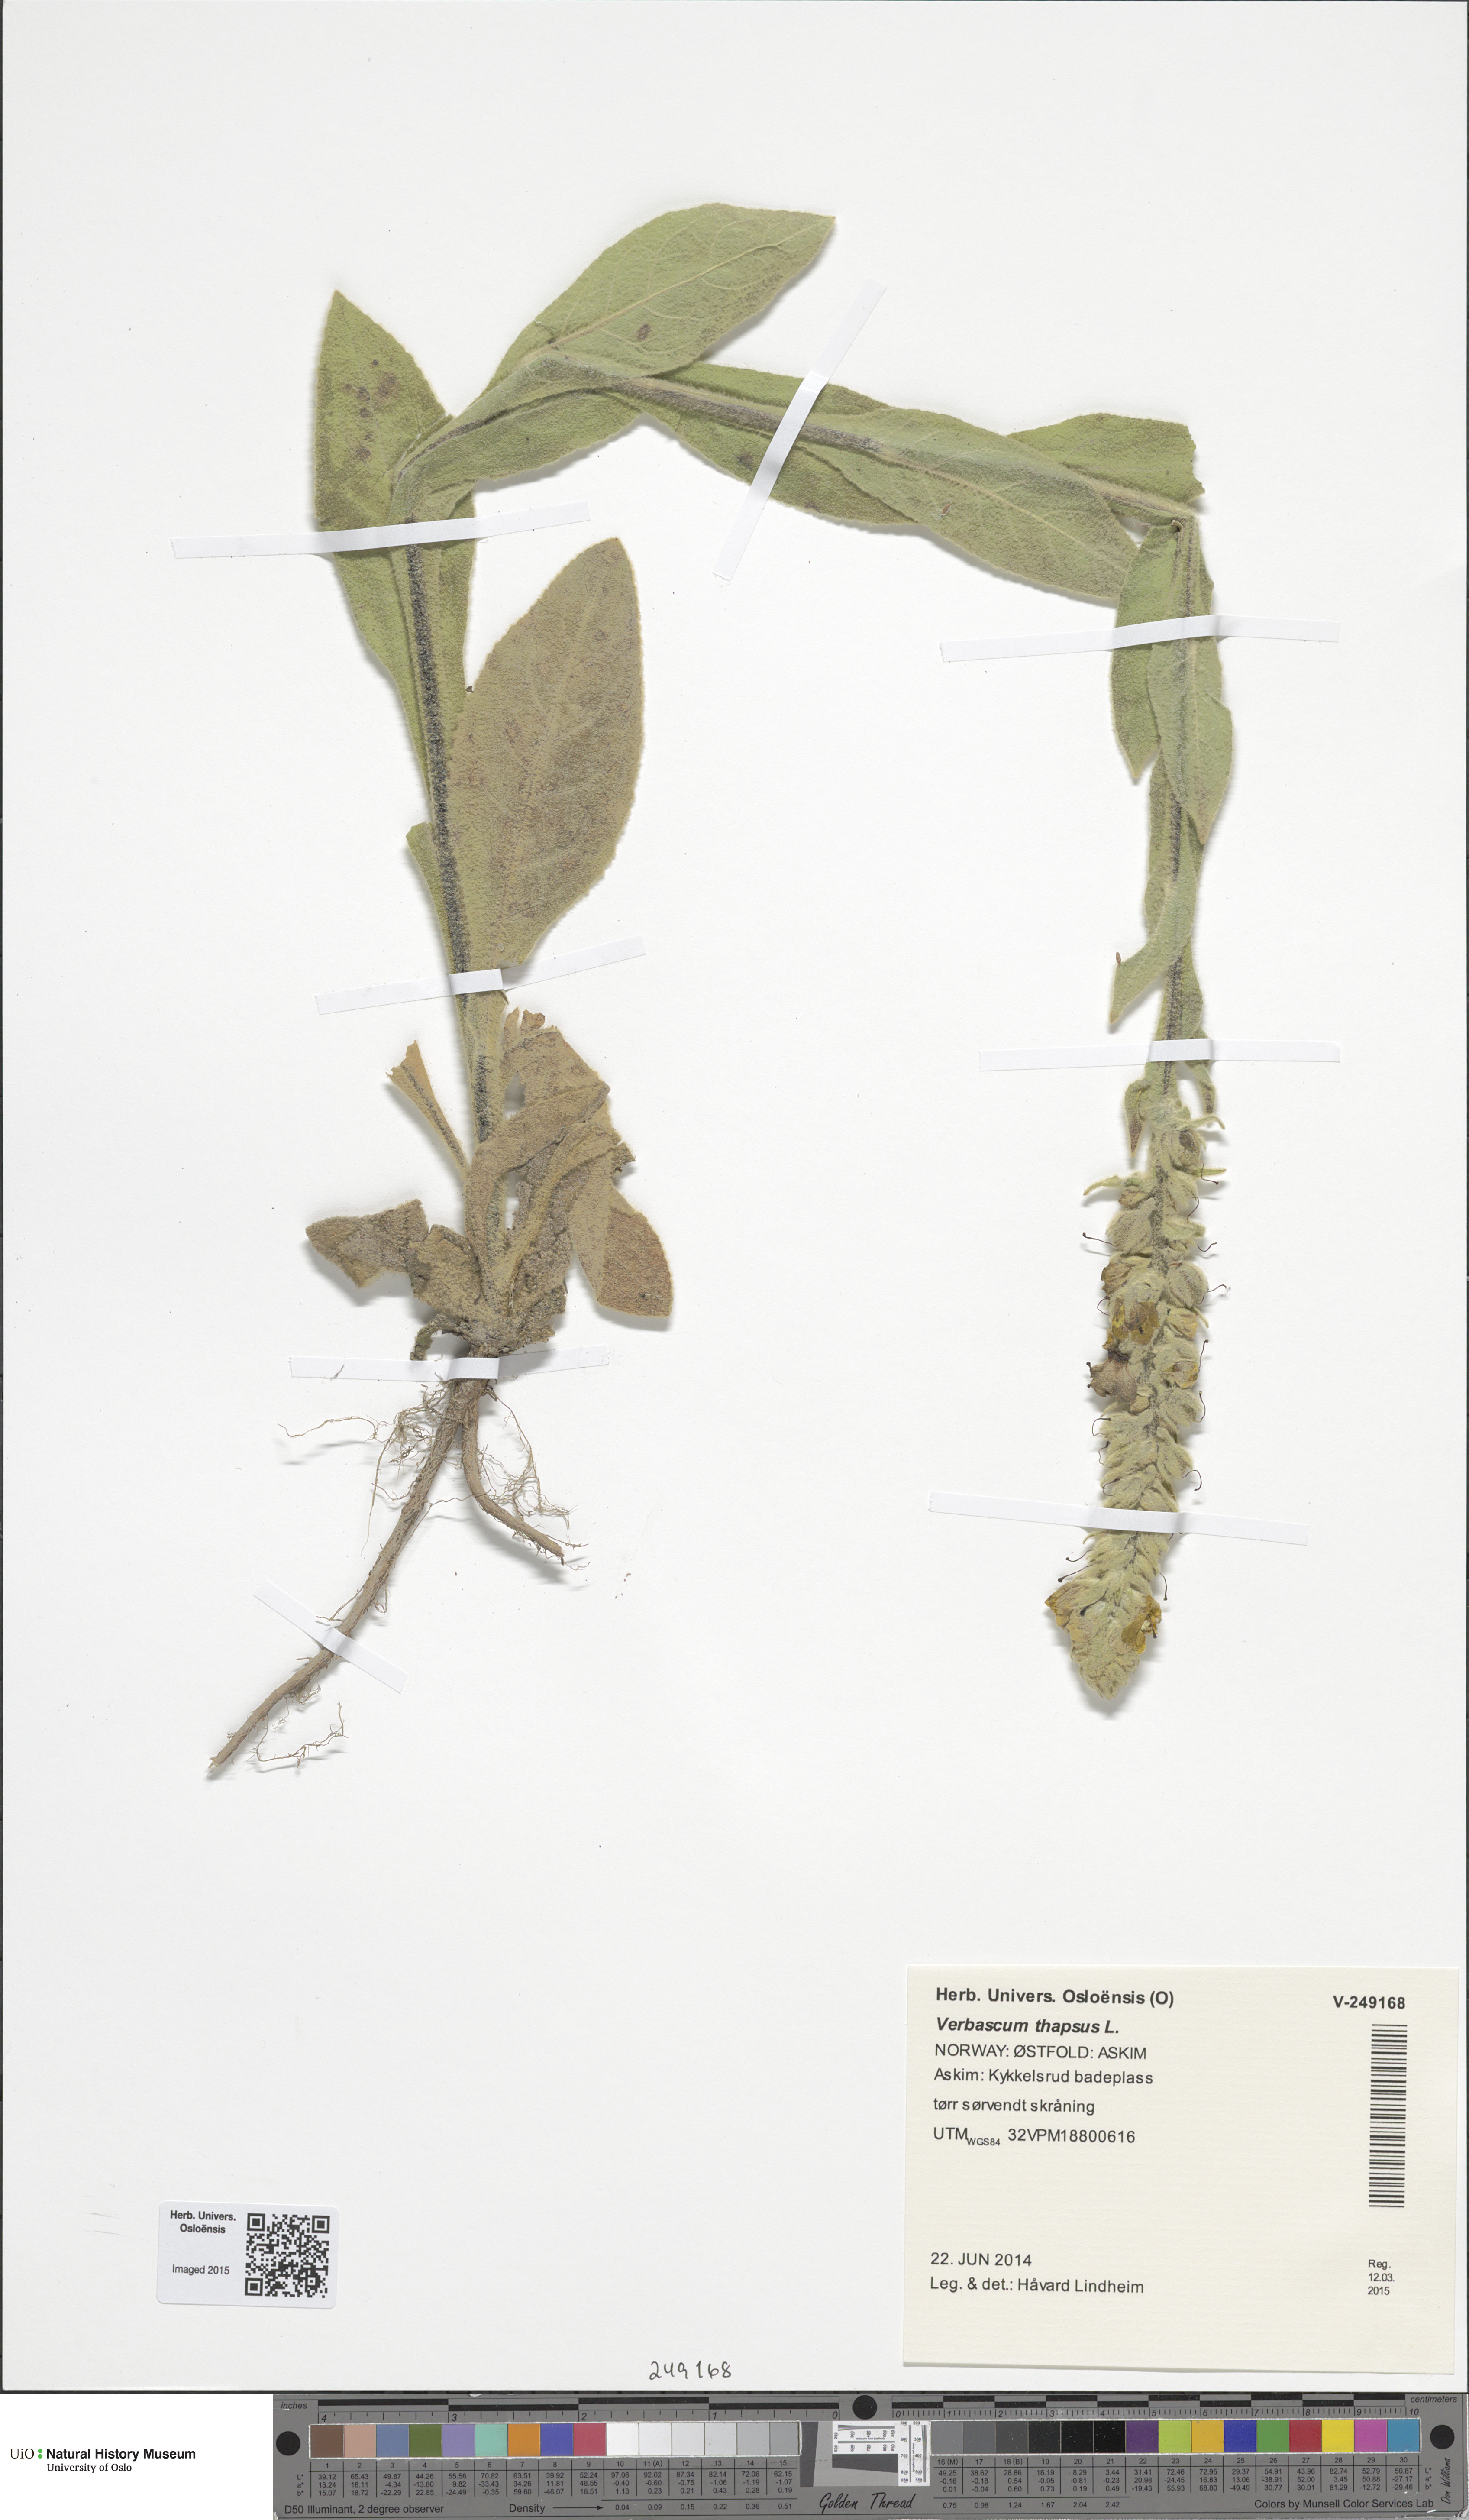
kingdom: Plantae
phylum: Tracheophyta
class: Magnoliopsida
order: Lamiales
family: Scrophulariaceae
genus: Verbascum
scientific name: Verbascum thapsus
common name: Common mullein
